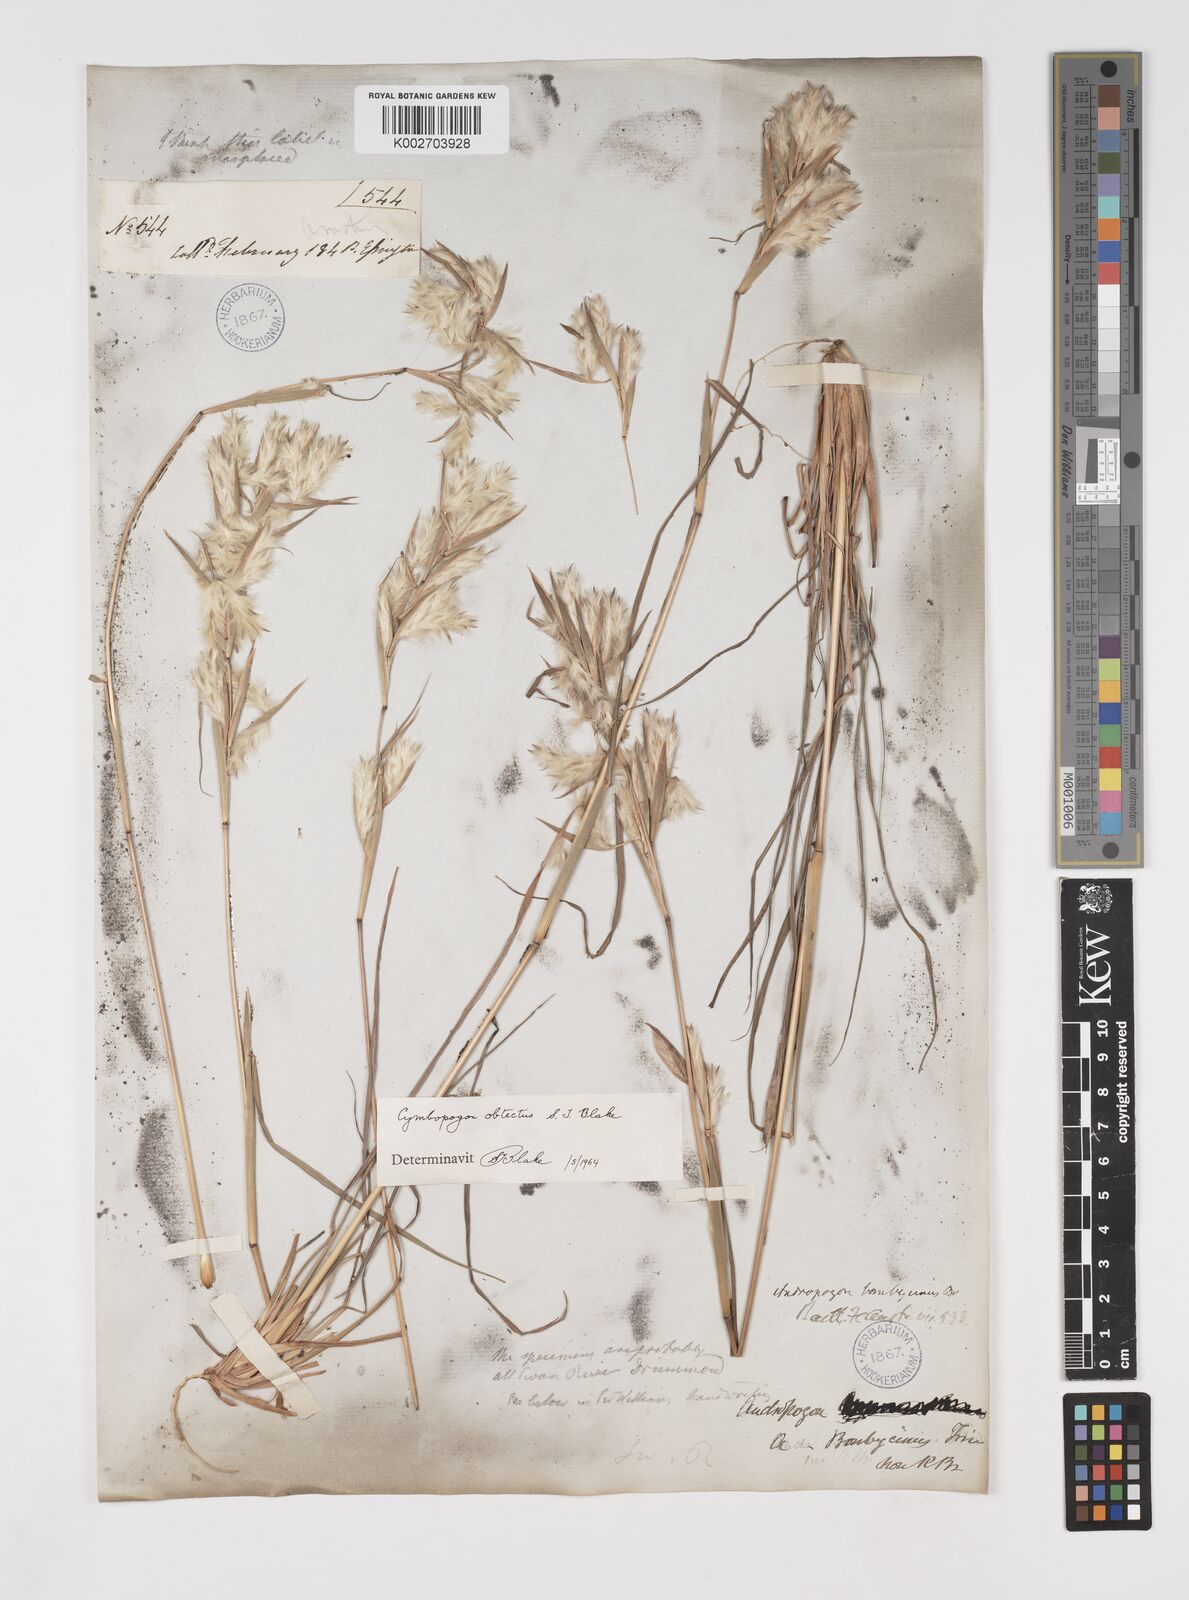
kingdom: Plantae
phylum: Tracheophyta
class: Liliopsida
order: Poales
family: Poaceae
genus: Cymbopogon
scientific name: Cymbopogon obtectus
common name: Silky heads
